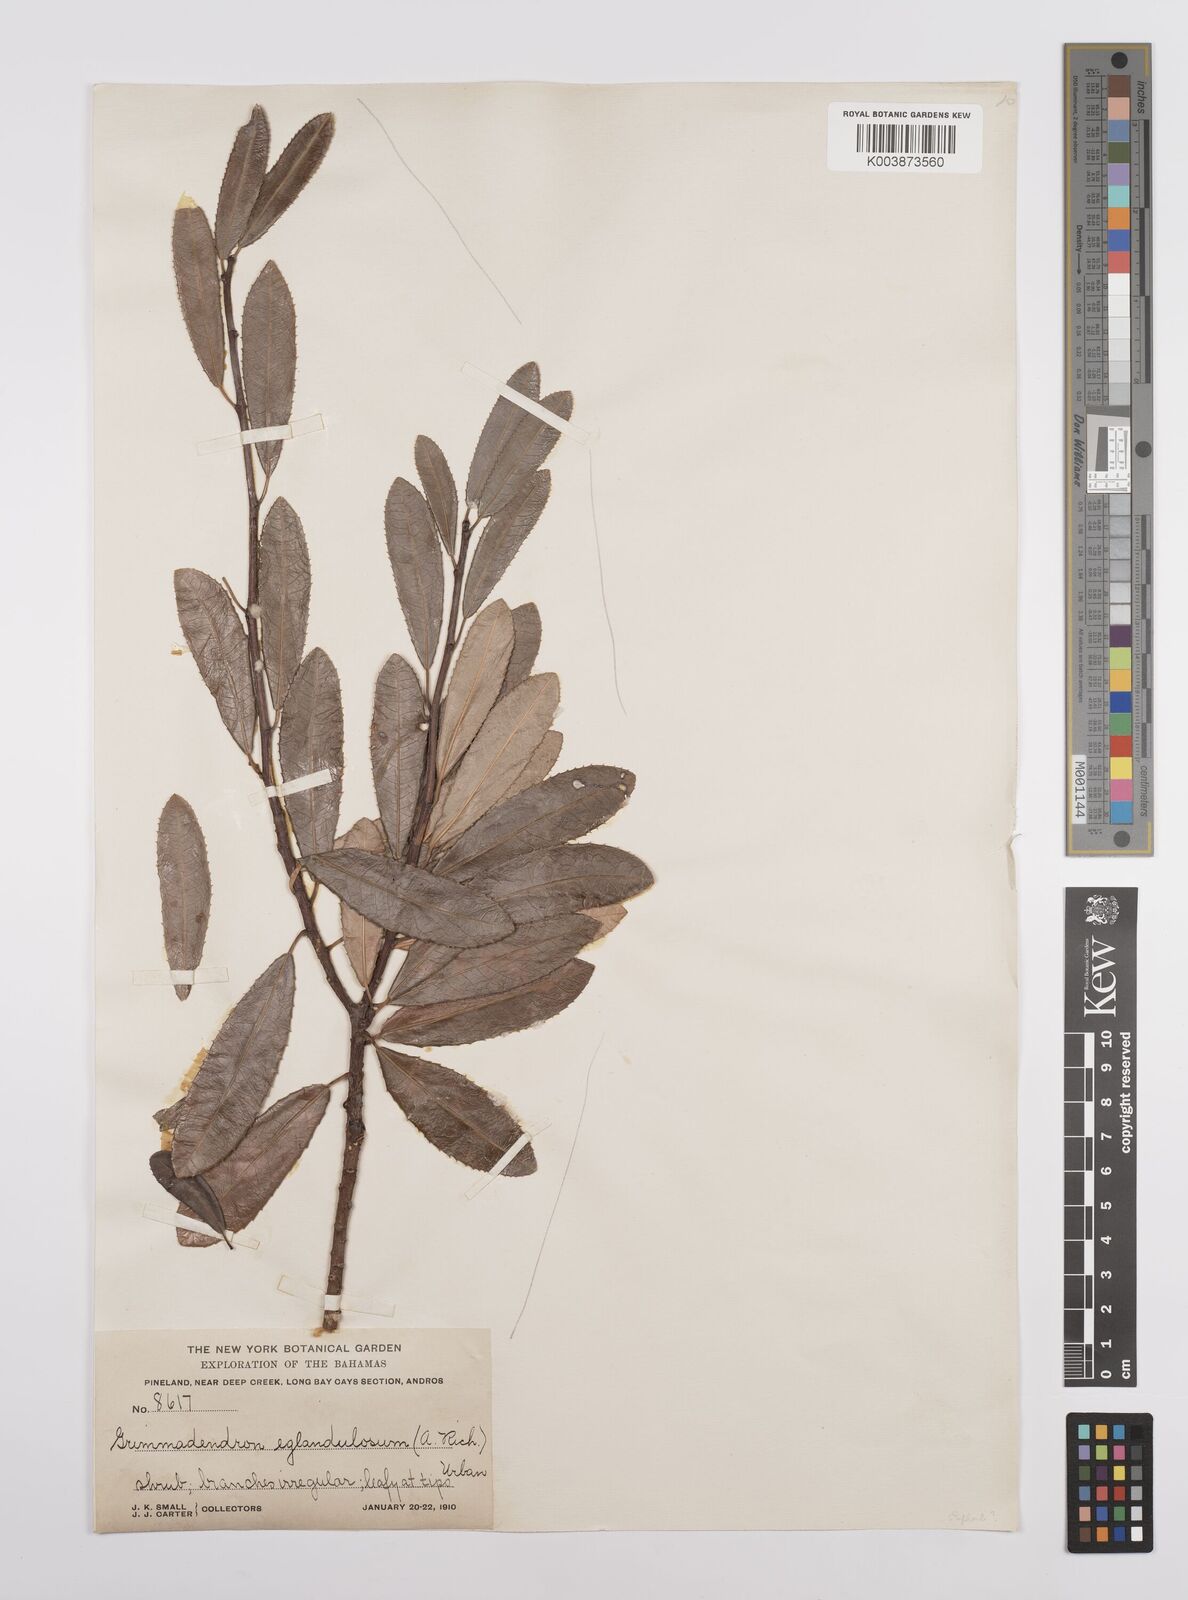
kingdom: Plantae
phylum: Tracheophyta
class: Magnoliopsida
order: Malpighiales
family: Euphorbiaceae
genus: Grimmeodendron
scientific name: Grimmeodendron eglandulosum
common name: Grimm’s tree
